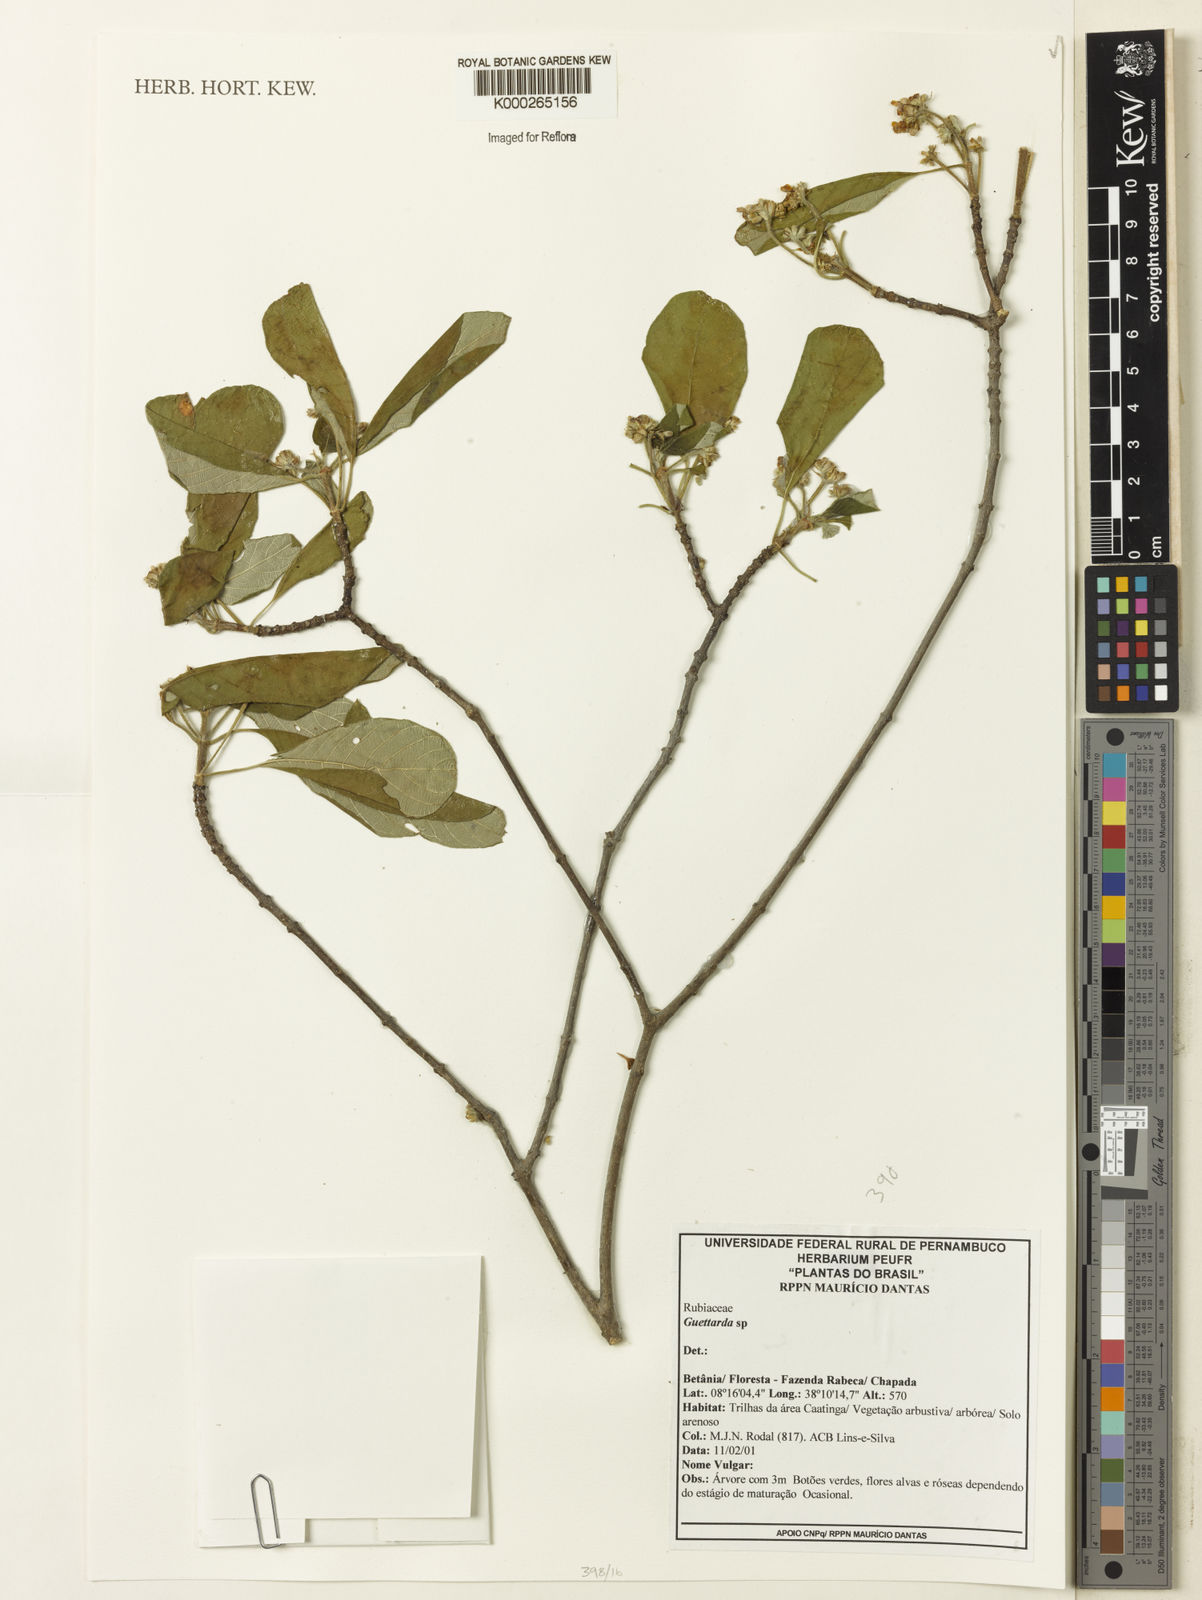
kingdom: Plantae
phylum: Tracheophyta
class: Magnoliopsida
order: Gentianales
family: Rubiaceae
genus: Guettarda
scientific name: Guettarda
